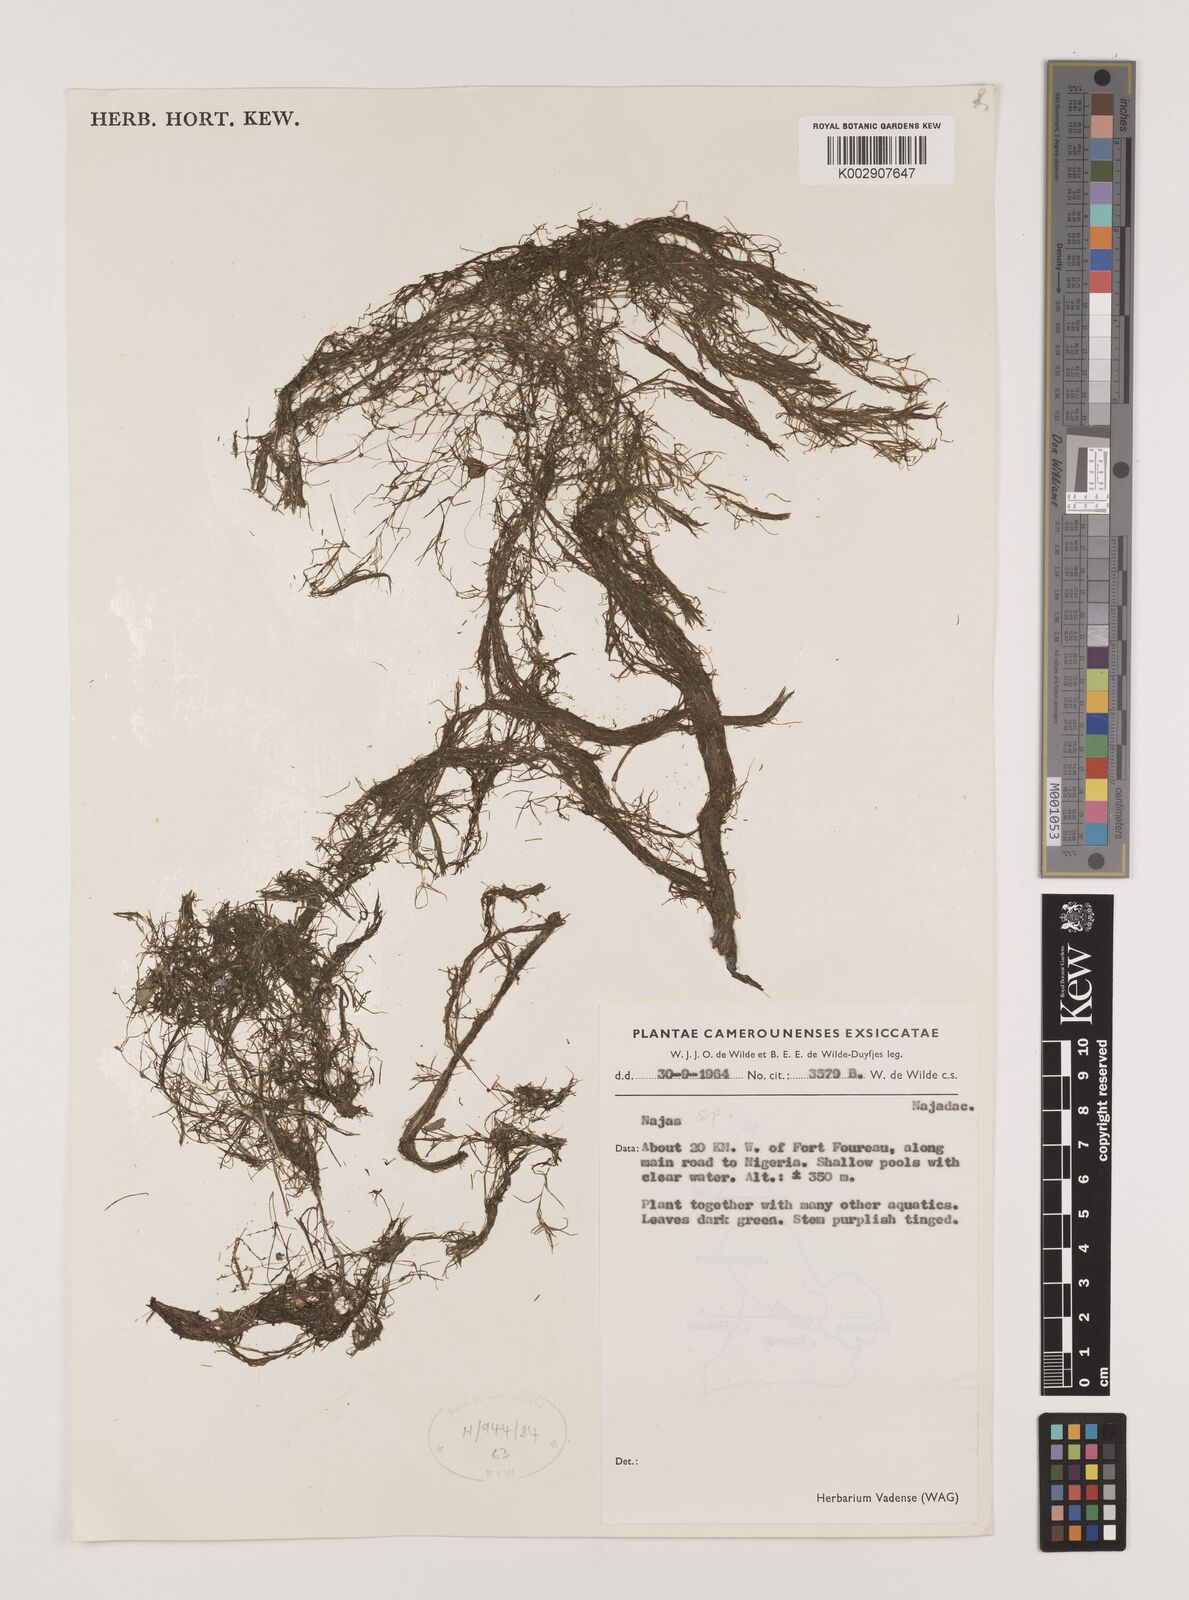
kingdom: Plantae
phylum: Tracheophyta
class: Liliopsida
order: Alismatales
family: Hydrocharitaceae
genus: Najas
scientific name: Najas
